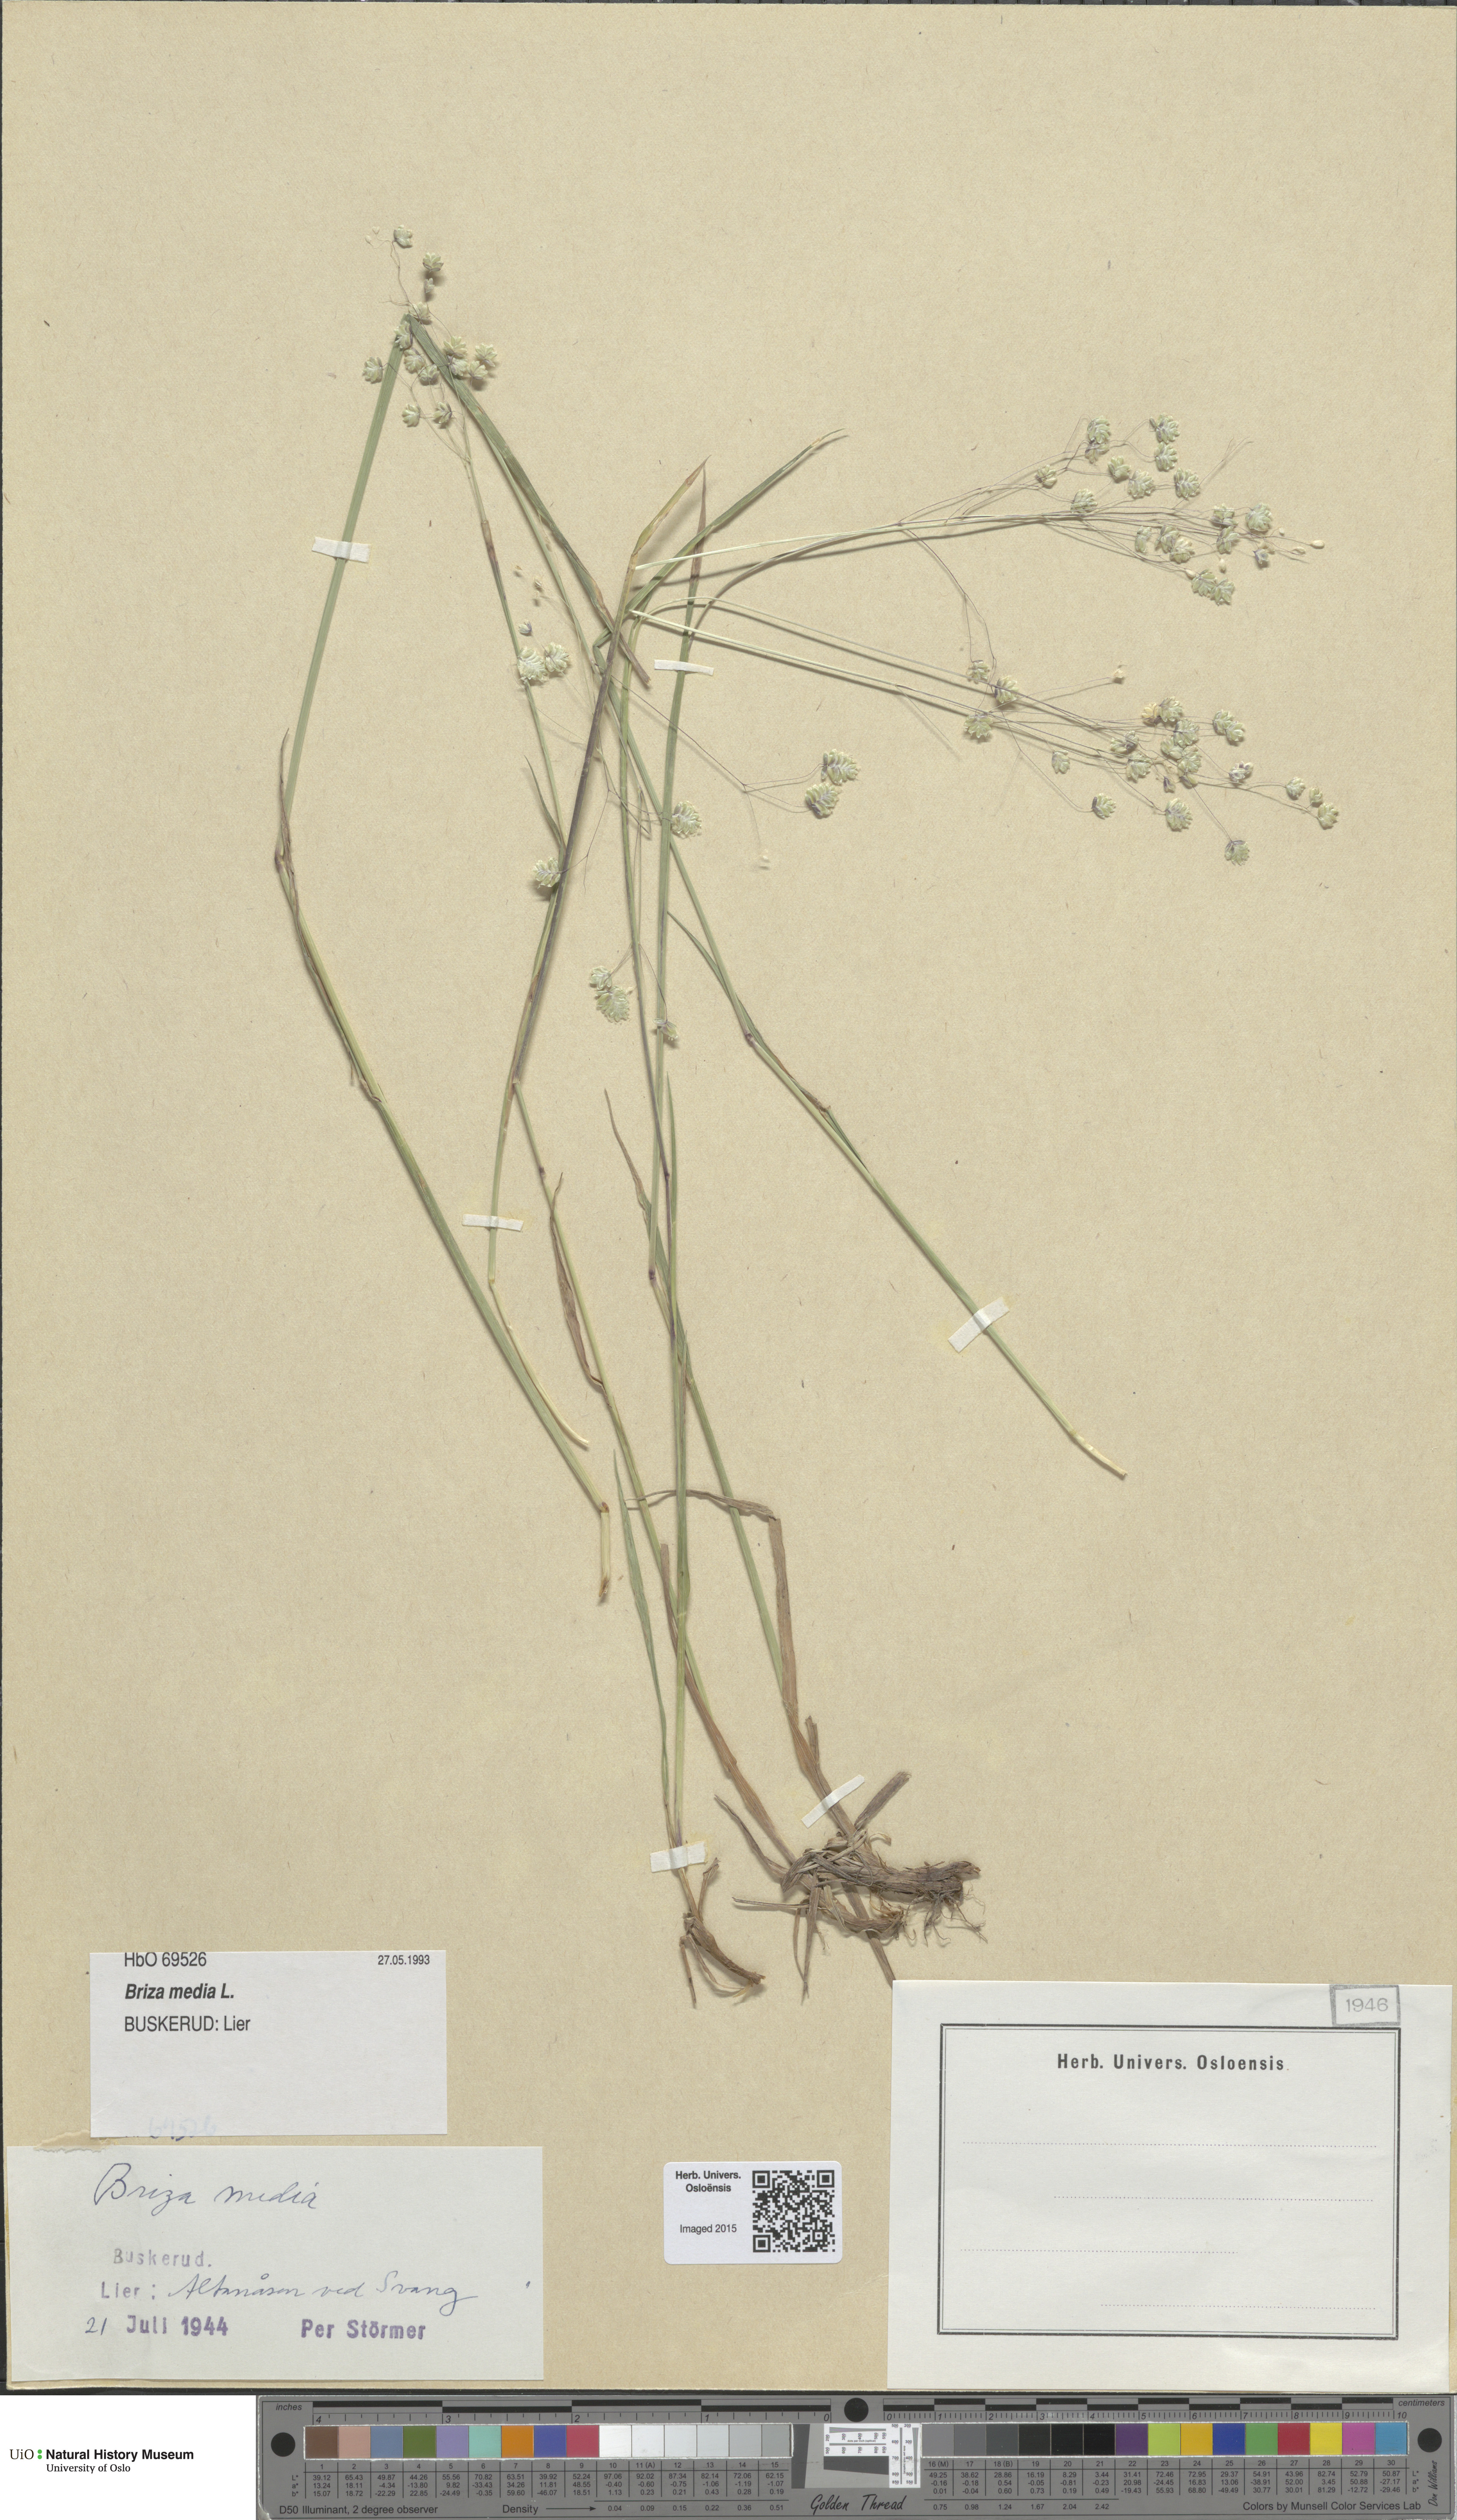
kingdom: Plantae
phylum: Tracheophyta
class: Liliopsida
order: Poales
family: Poaceae
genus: Briza
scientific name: Briza media
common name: Quaking grass
